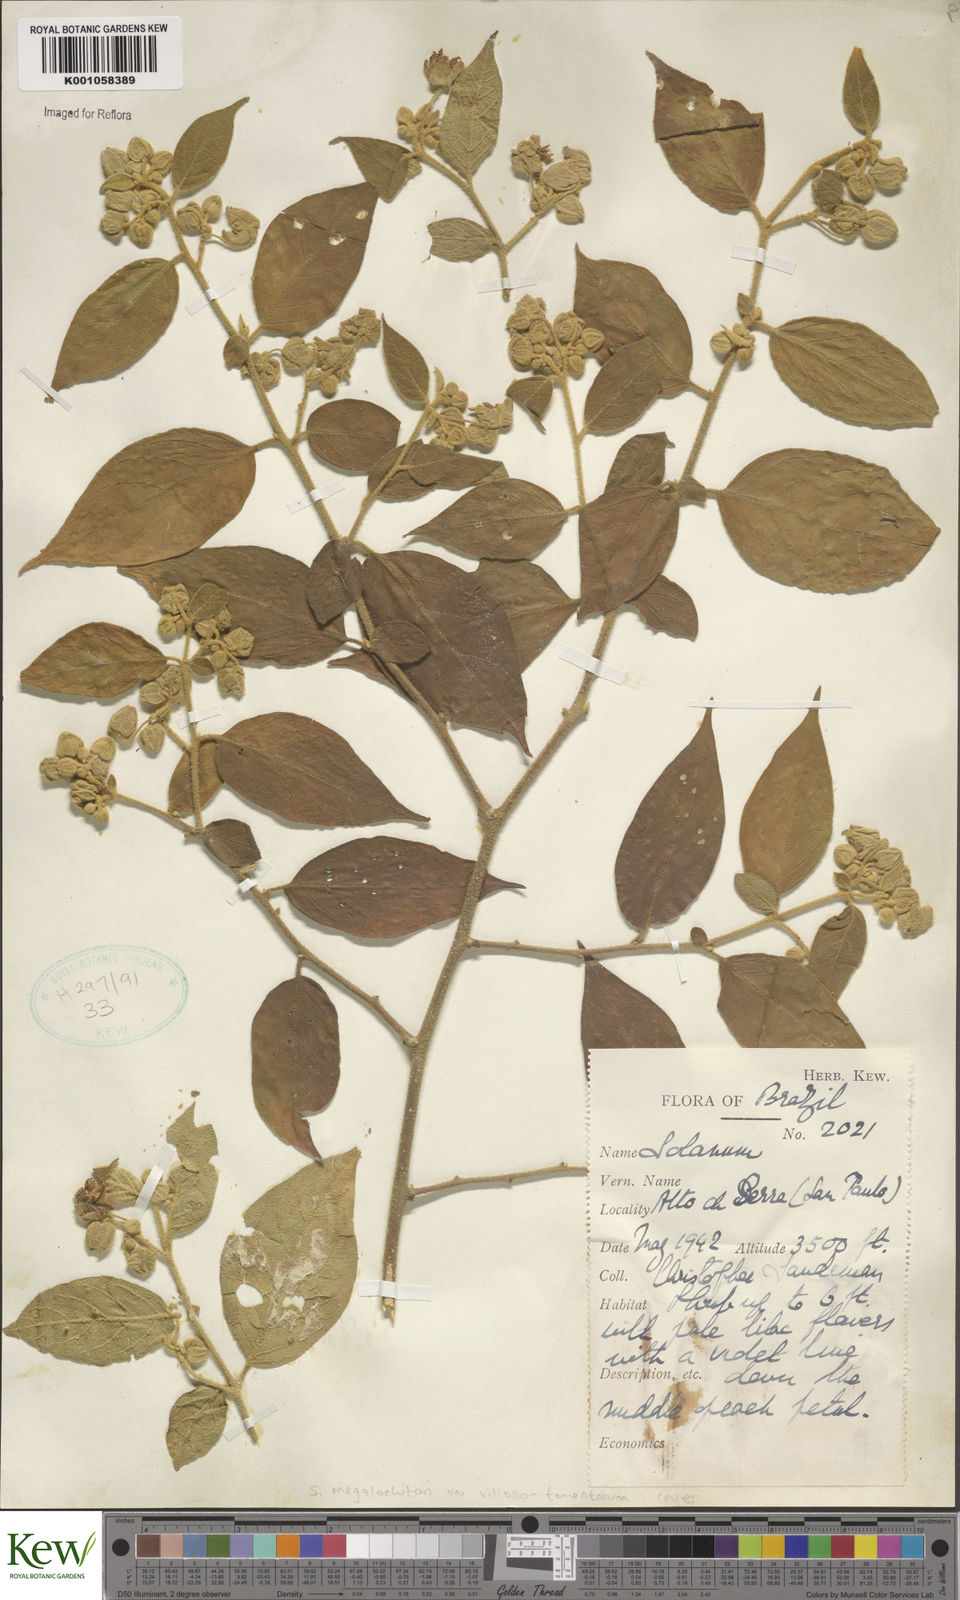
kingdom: Plantae
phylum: Tracheophyta
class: Magnoliopsida
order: Solanales
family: Solanaceae
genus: Solanum
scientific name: Solanum didymum
